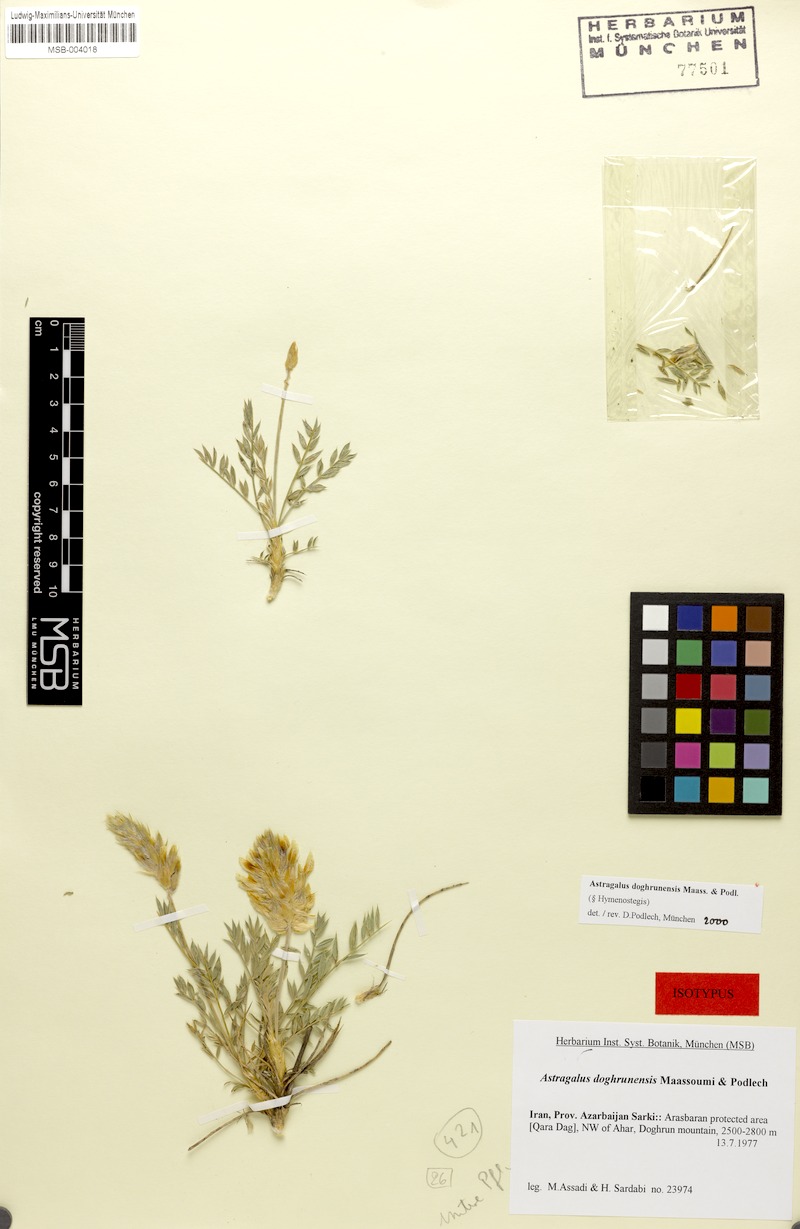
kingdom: Plantae
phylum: Tracheophyta
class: Magnoliopsida
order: Fabales
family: Fabaceae
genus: Astragalus
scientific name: Astragalus doghrunensis
